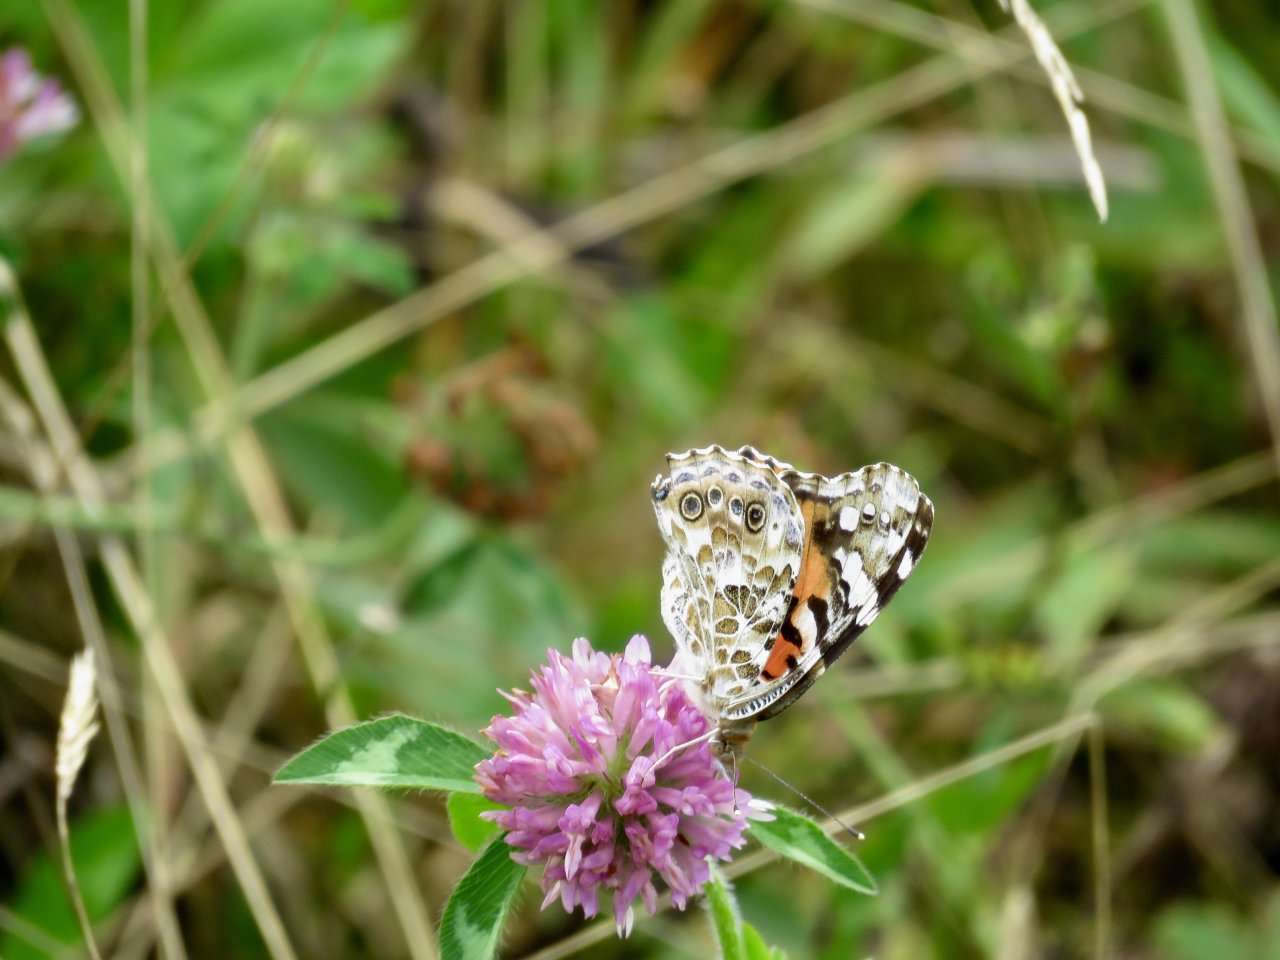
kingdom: Animalia
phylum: Arthropoda
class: Insecta
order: Lepidoptera
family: Nymphalidae
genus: Vanessa
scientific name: Vanessa cardui
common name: Painted Lady
